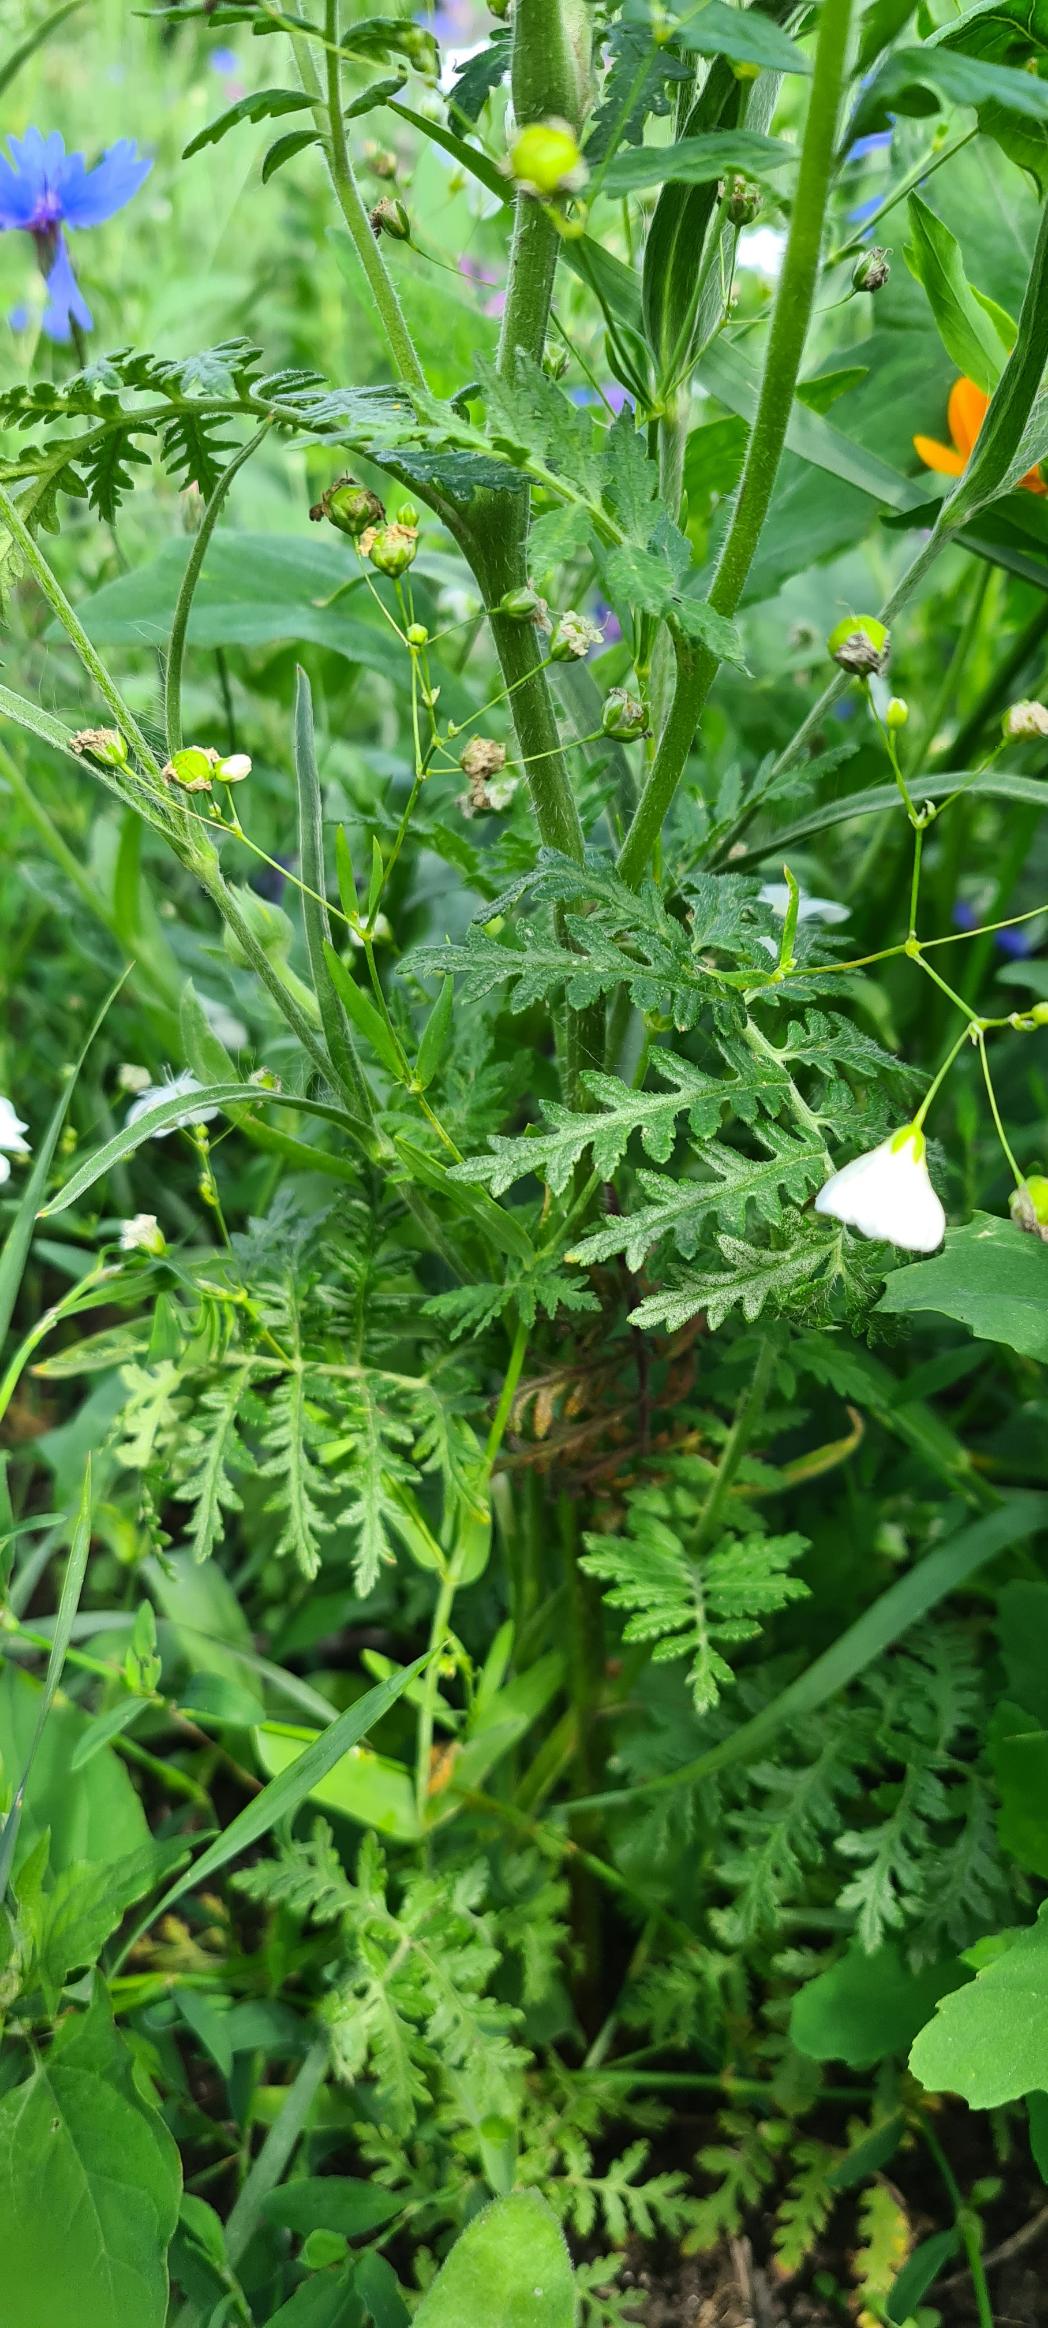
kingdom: Plantae
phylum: Tracheophyta
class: Magnoliopsida
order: Boraginales
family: Hydrophyllaceae
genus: Phacelia
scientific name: Phacelia tanacetifolia
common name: Honningurt
